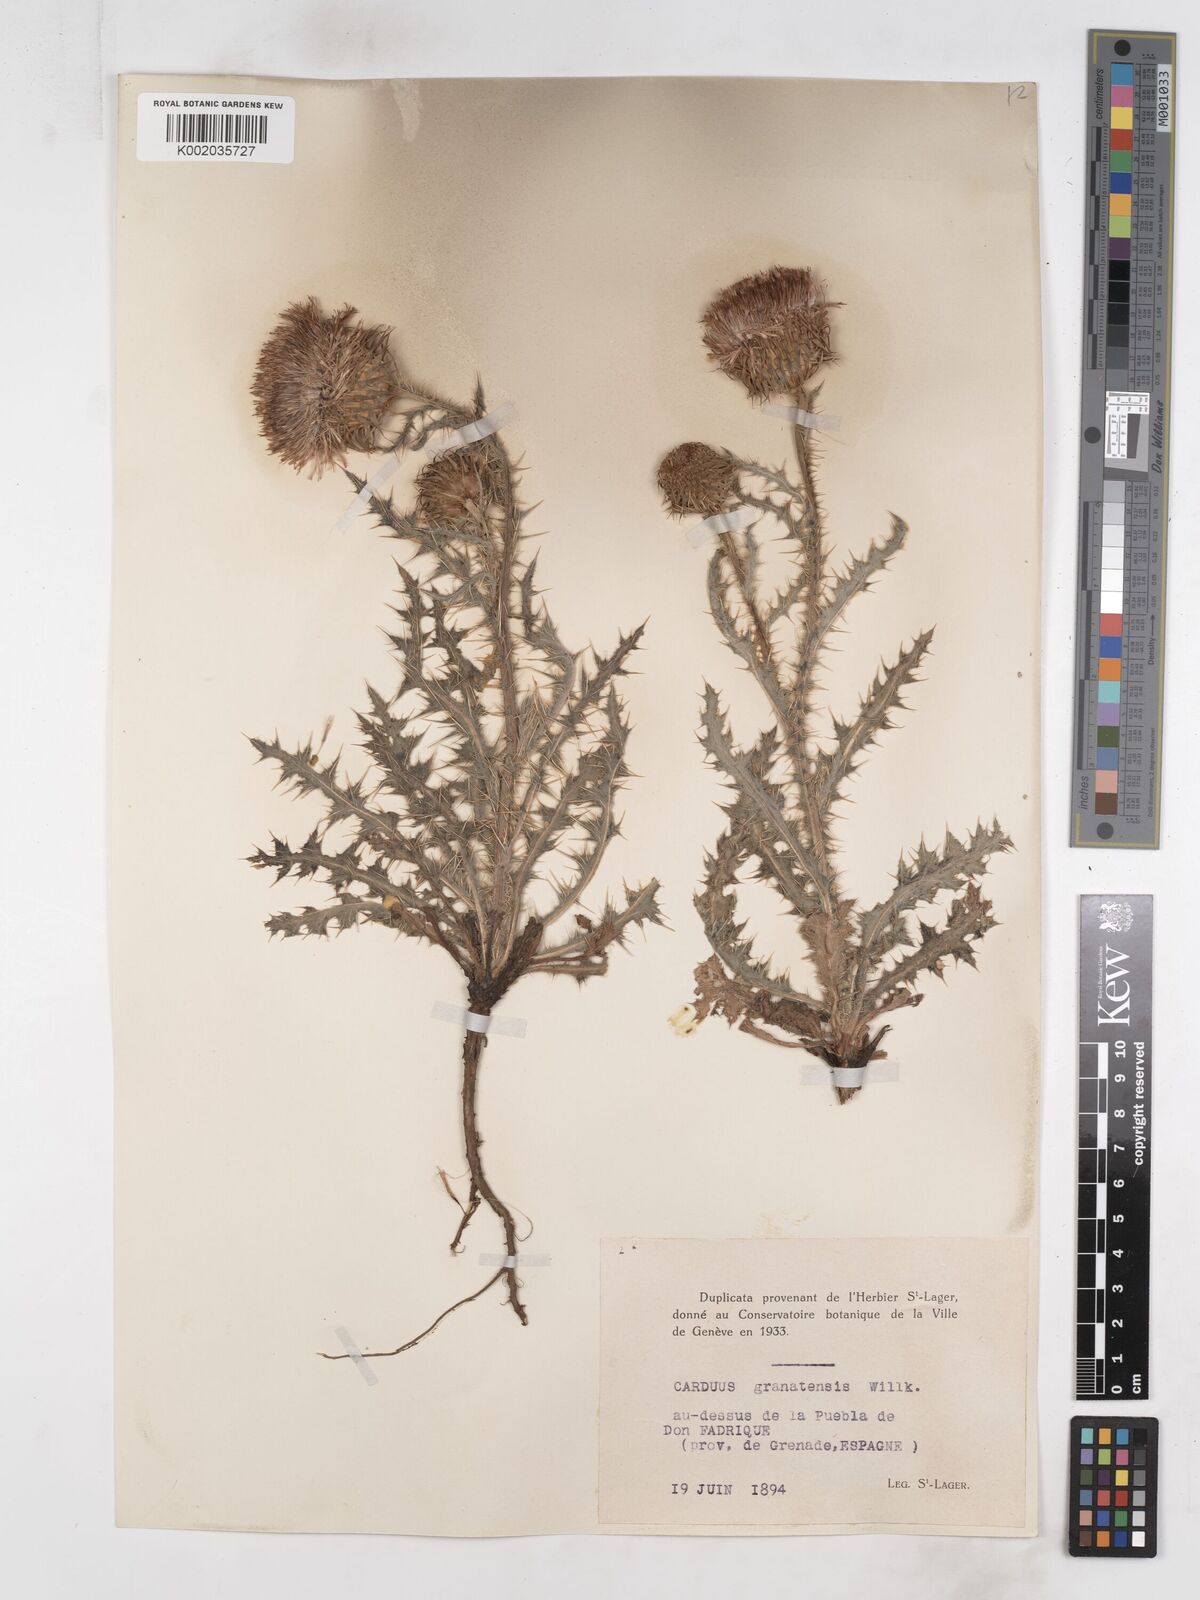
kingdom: Plantae
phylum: Tracheophyta
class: Magnoliopsida
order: Asterales
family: Asteraceae
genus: Carduus
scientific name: Carduus platypus
